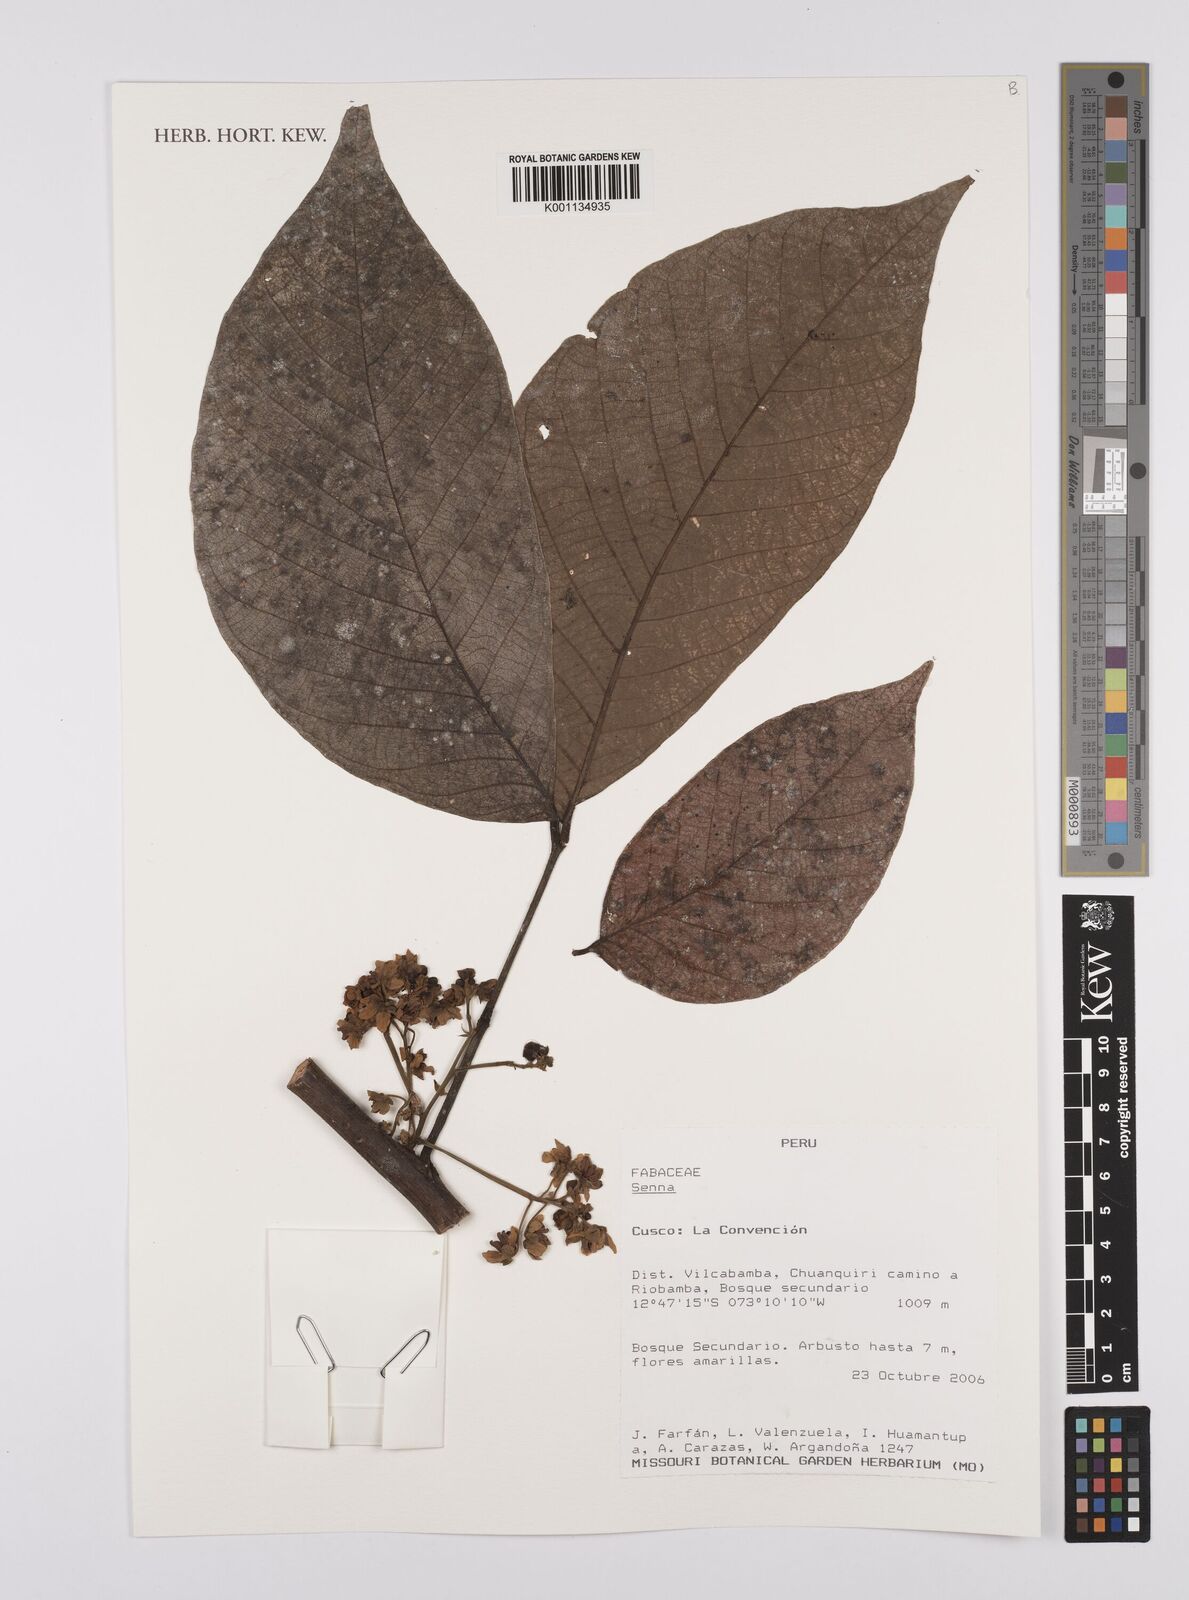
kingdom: Plantae
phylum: Tracheophyta
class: Magnoliopsida
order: Fabales
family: Fabaceae
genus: Senna
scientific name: Senna
